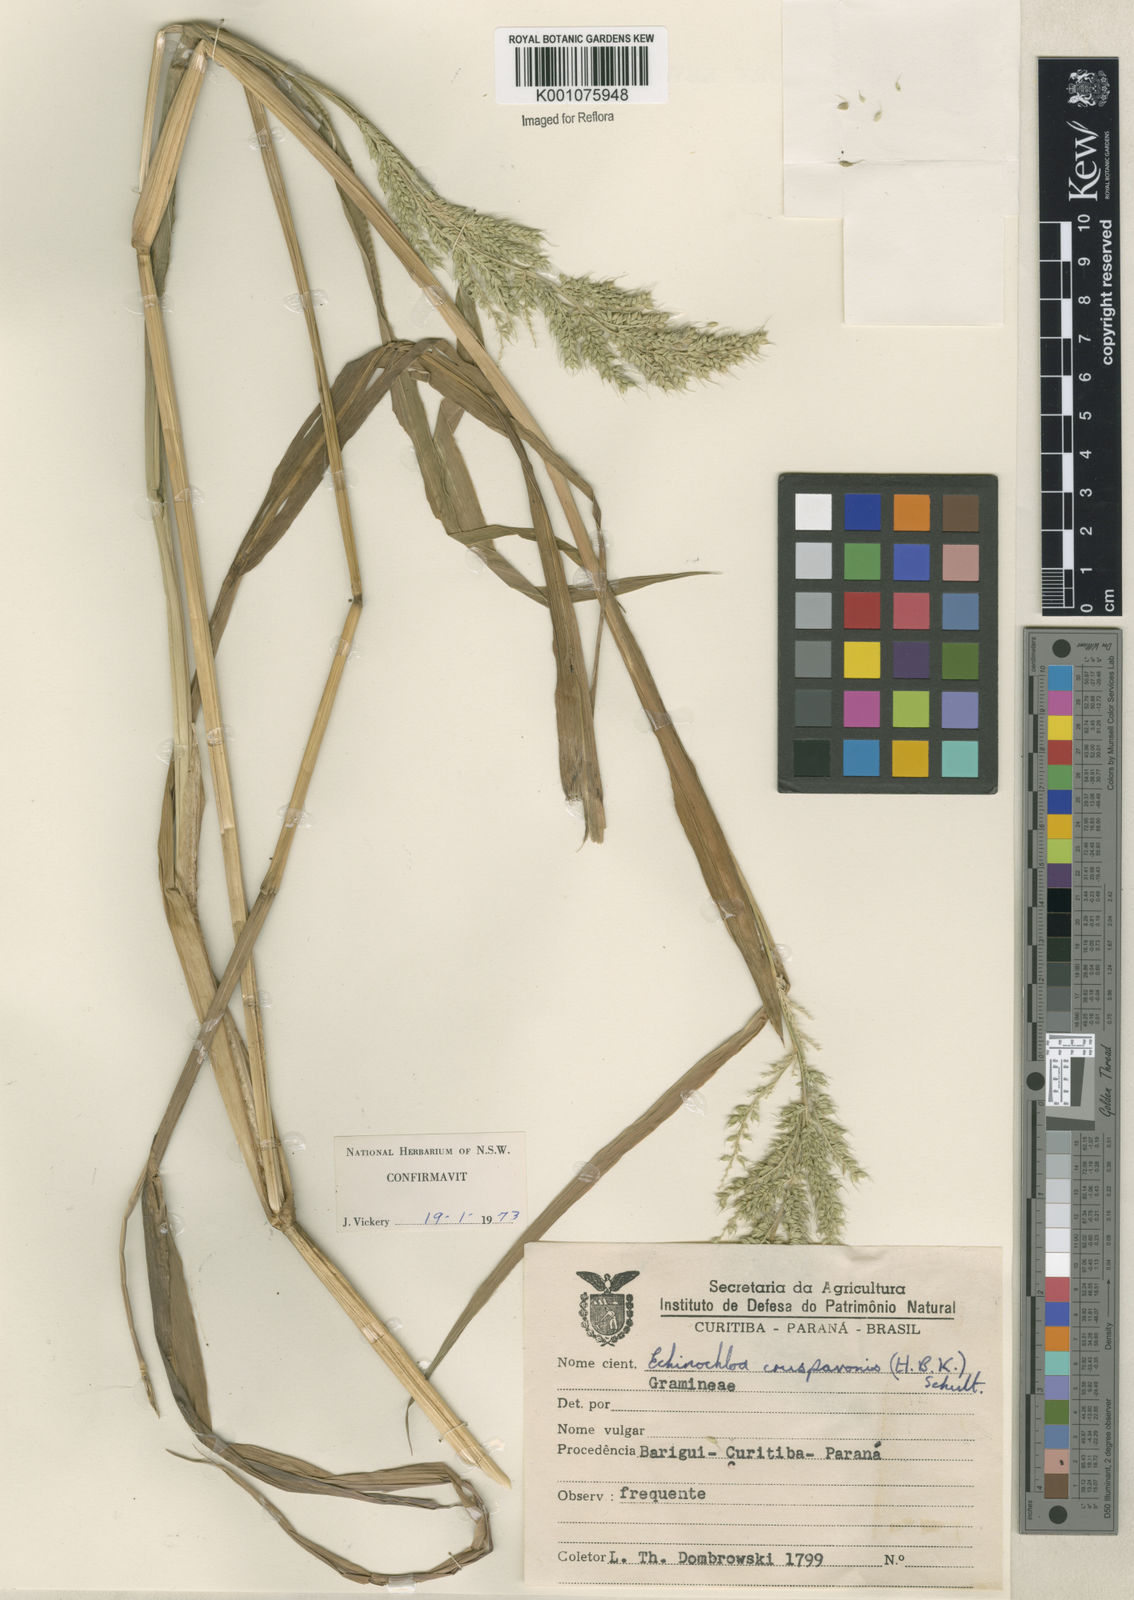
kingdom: Plantae
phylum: Tracheophyta
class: Liliopsida
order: Poales
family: Poaceae
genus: Echinochloa
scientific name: Echinochloa crus-pavonis
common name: Gulf cockspur grass
